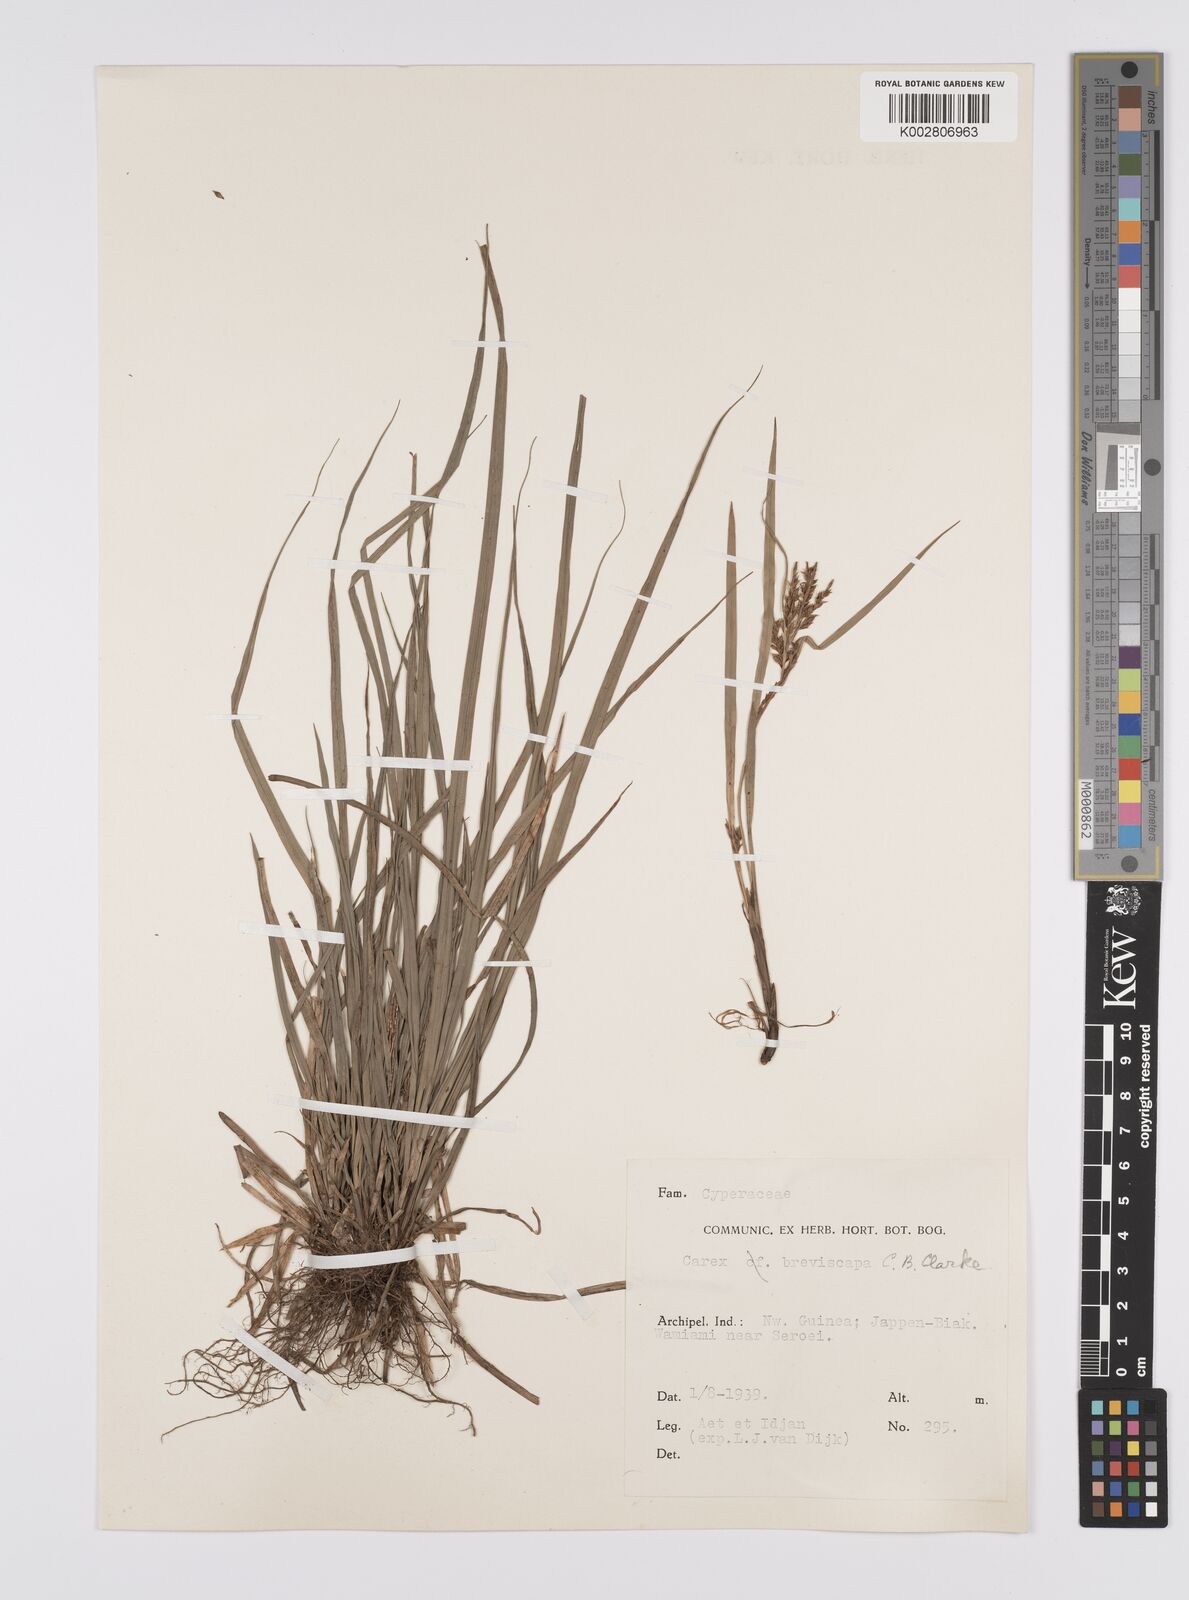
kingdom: Plantae
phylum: Tracheophyta
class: Liliopsida
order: Poales
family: Cyperaceae
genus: Carex
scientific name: Carex breviscapa
